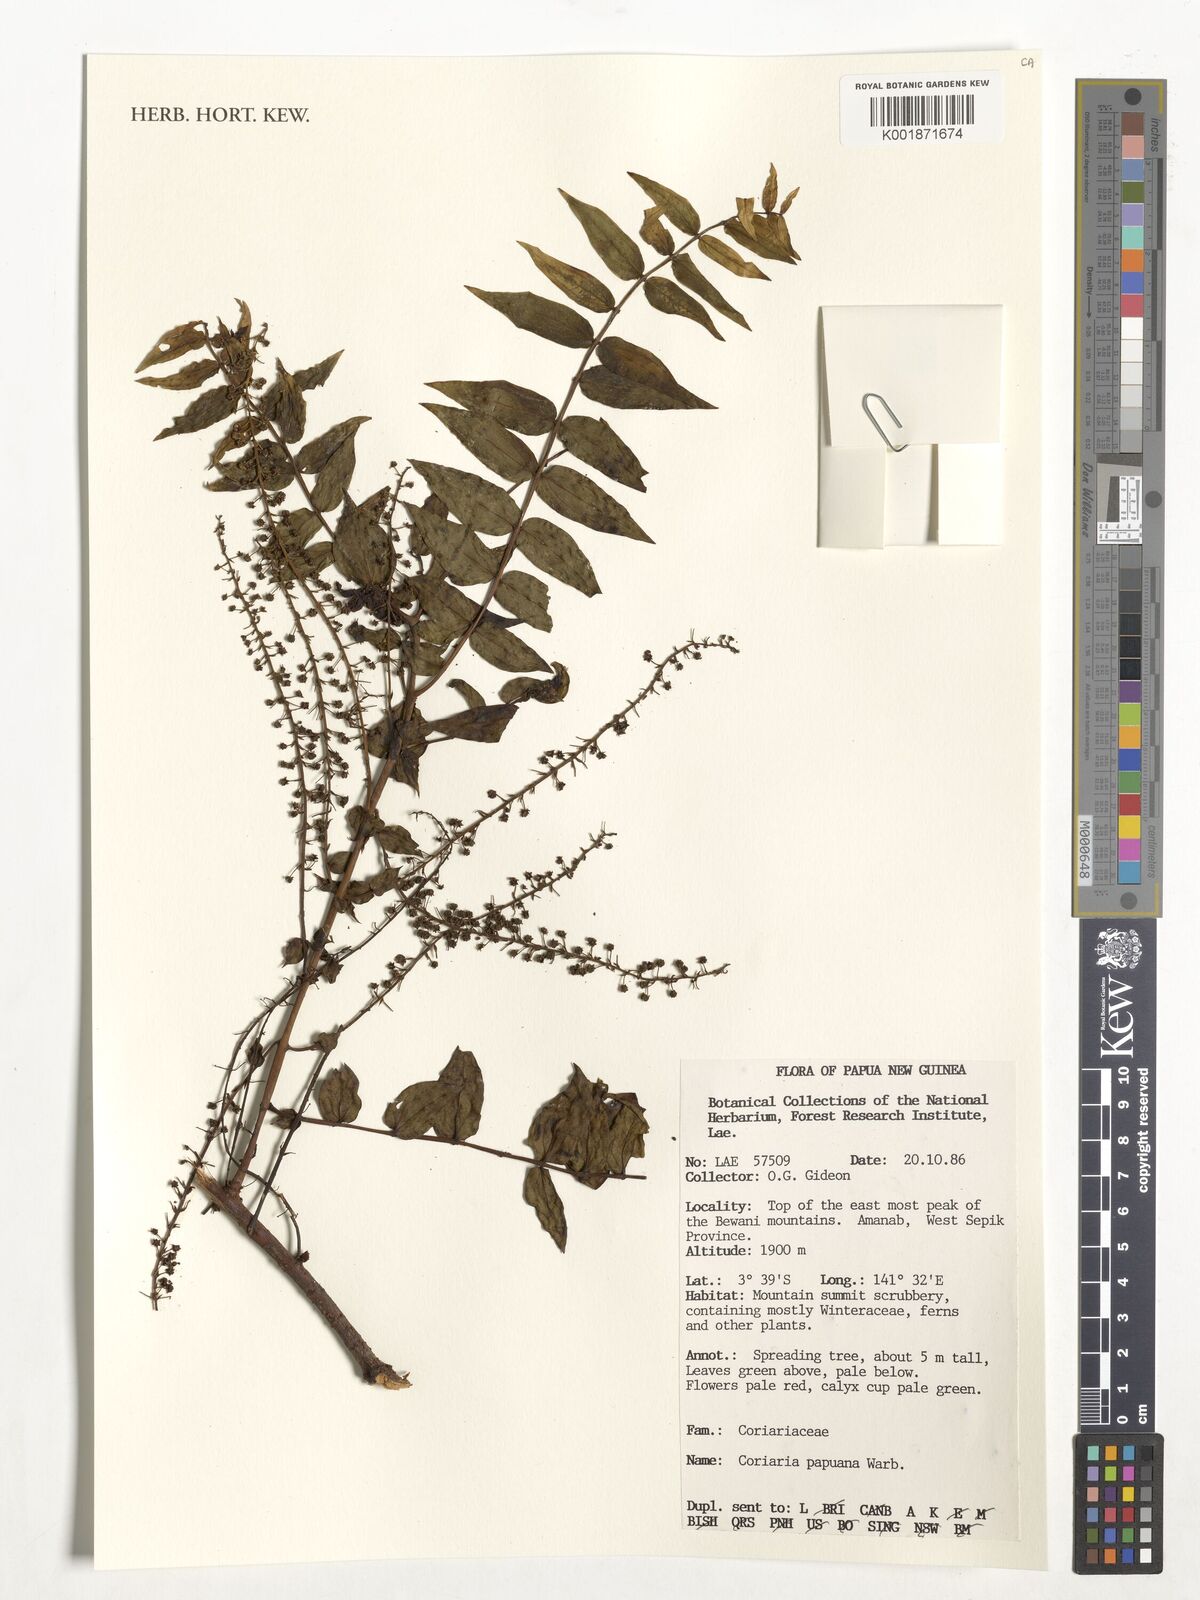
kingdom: Plantae
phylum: Tracheophyta
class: Magnoliopsida
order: Cucurbitales
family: Coriariaceae
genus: Coriaria
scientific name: Coriaria ruscifolia
